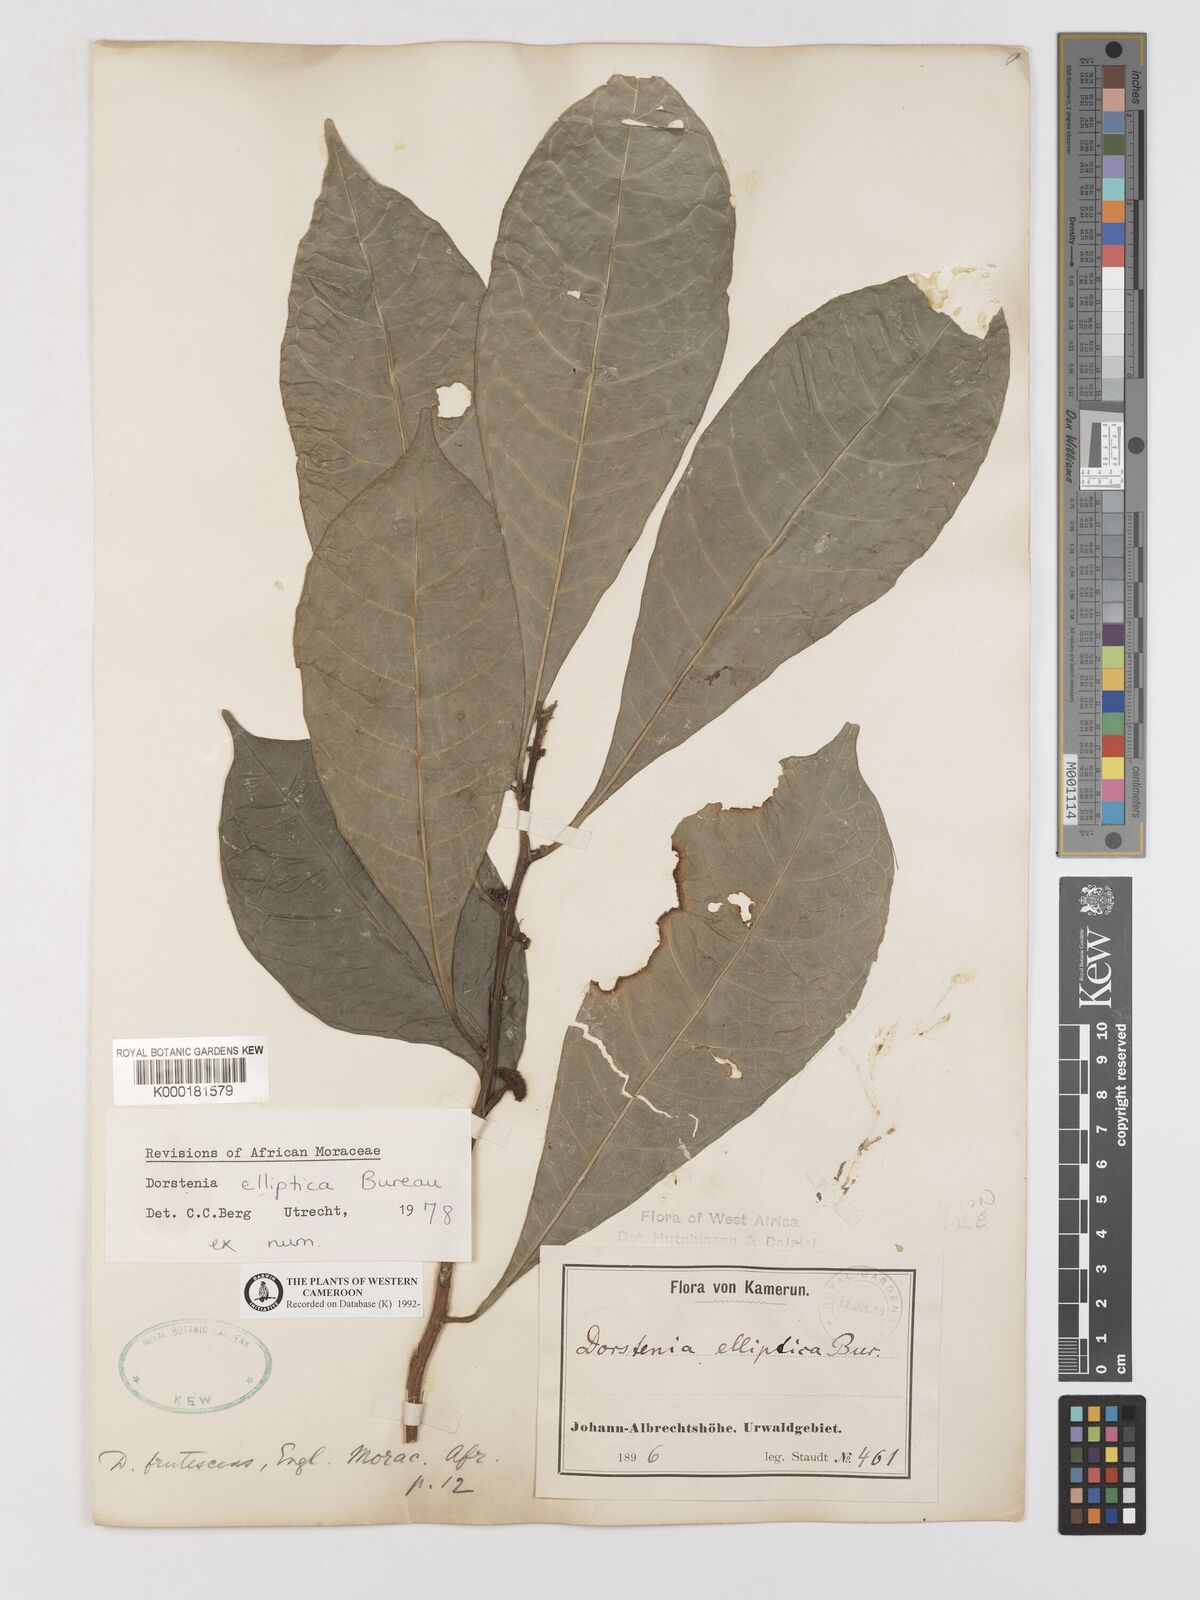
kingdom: Plantae
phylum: Tracheophyta
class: Magnoliopsida
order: Rosales
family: Moraceae
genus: Dorstenia
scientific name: Dorstenia elliptica
